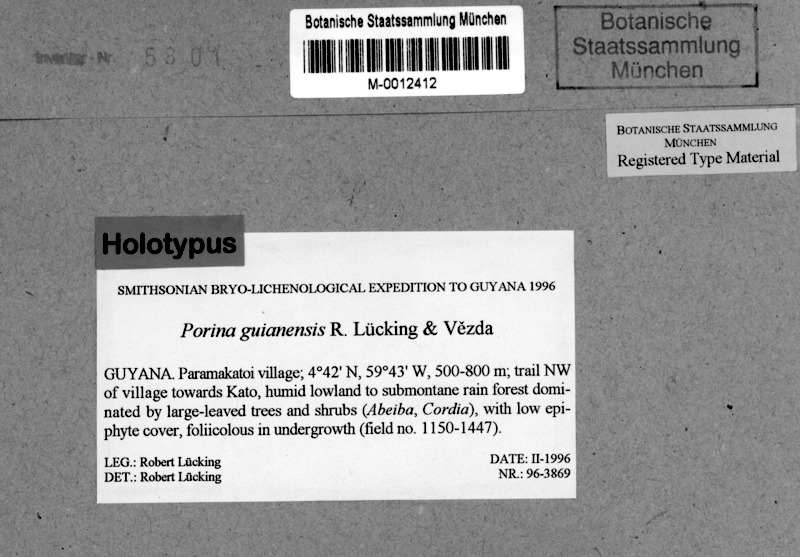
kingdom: Fungi
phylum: Ascomycota
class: Lecanoromycetes
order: Pertusariales
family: Pertusariaceae
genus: Porina
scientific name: Porina guianensis
